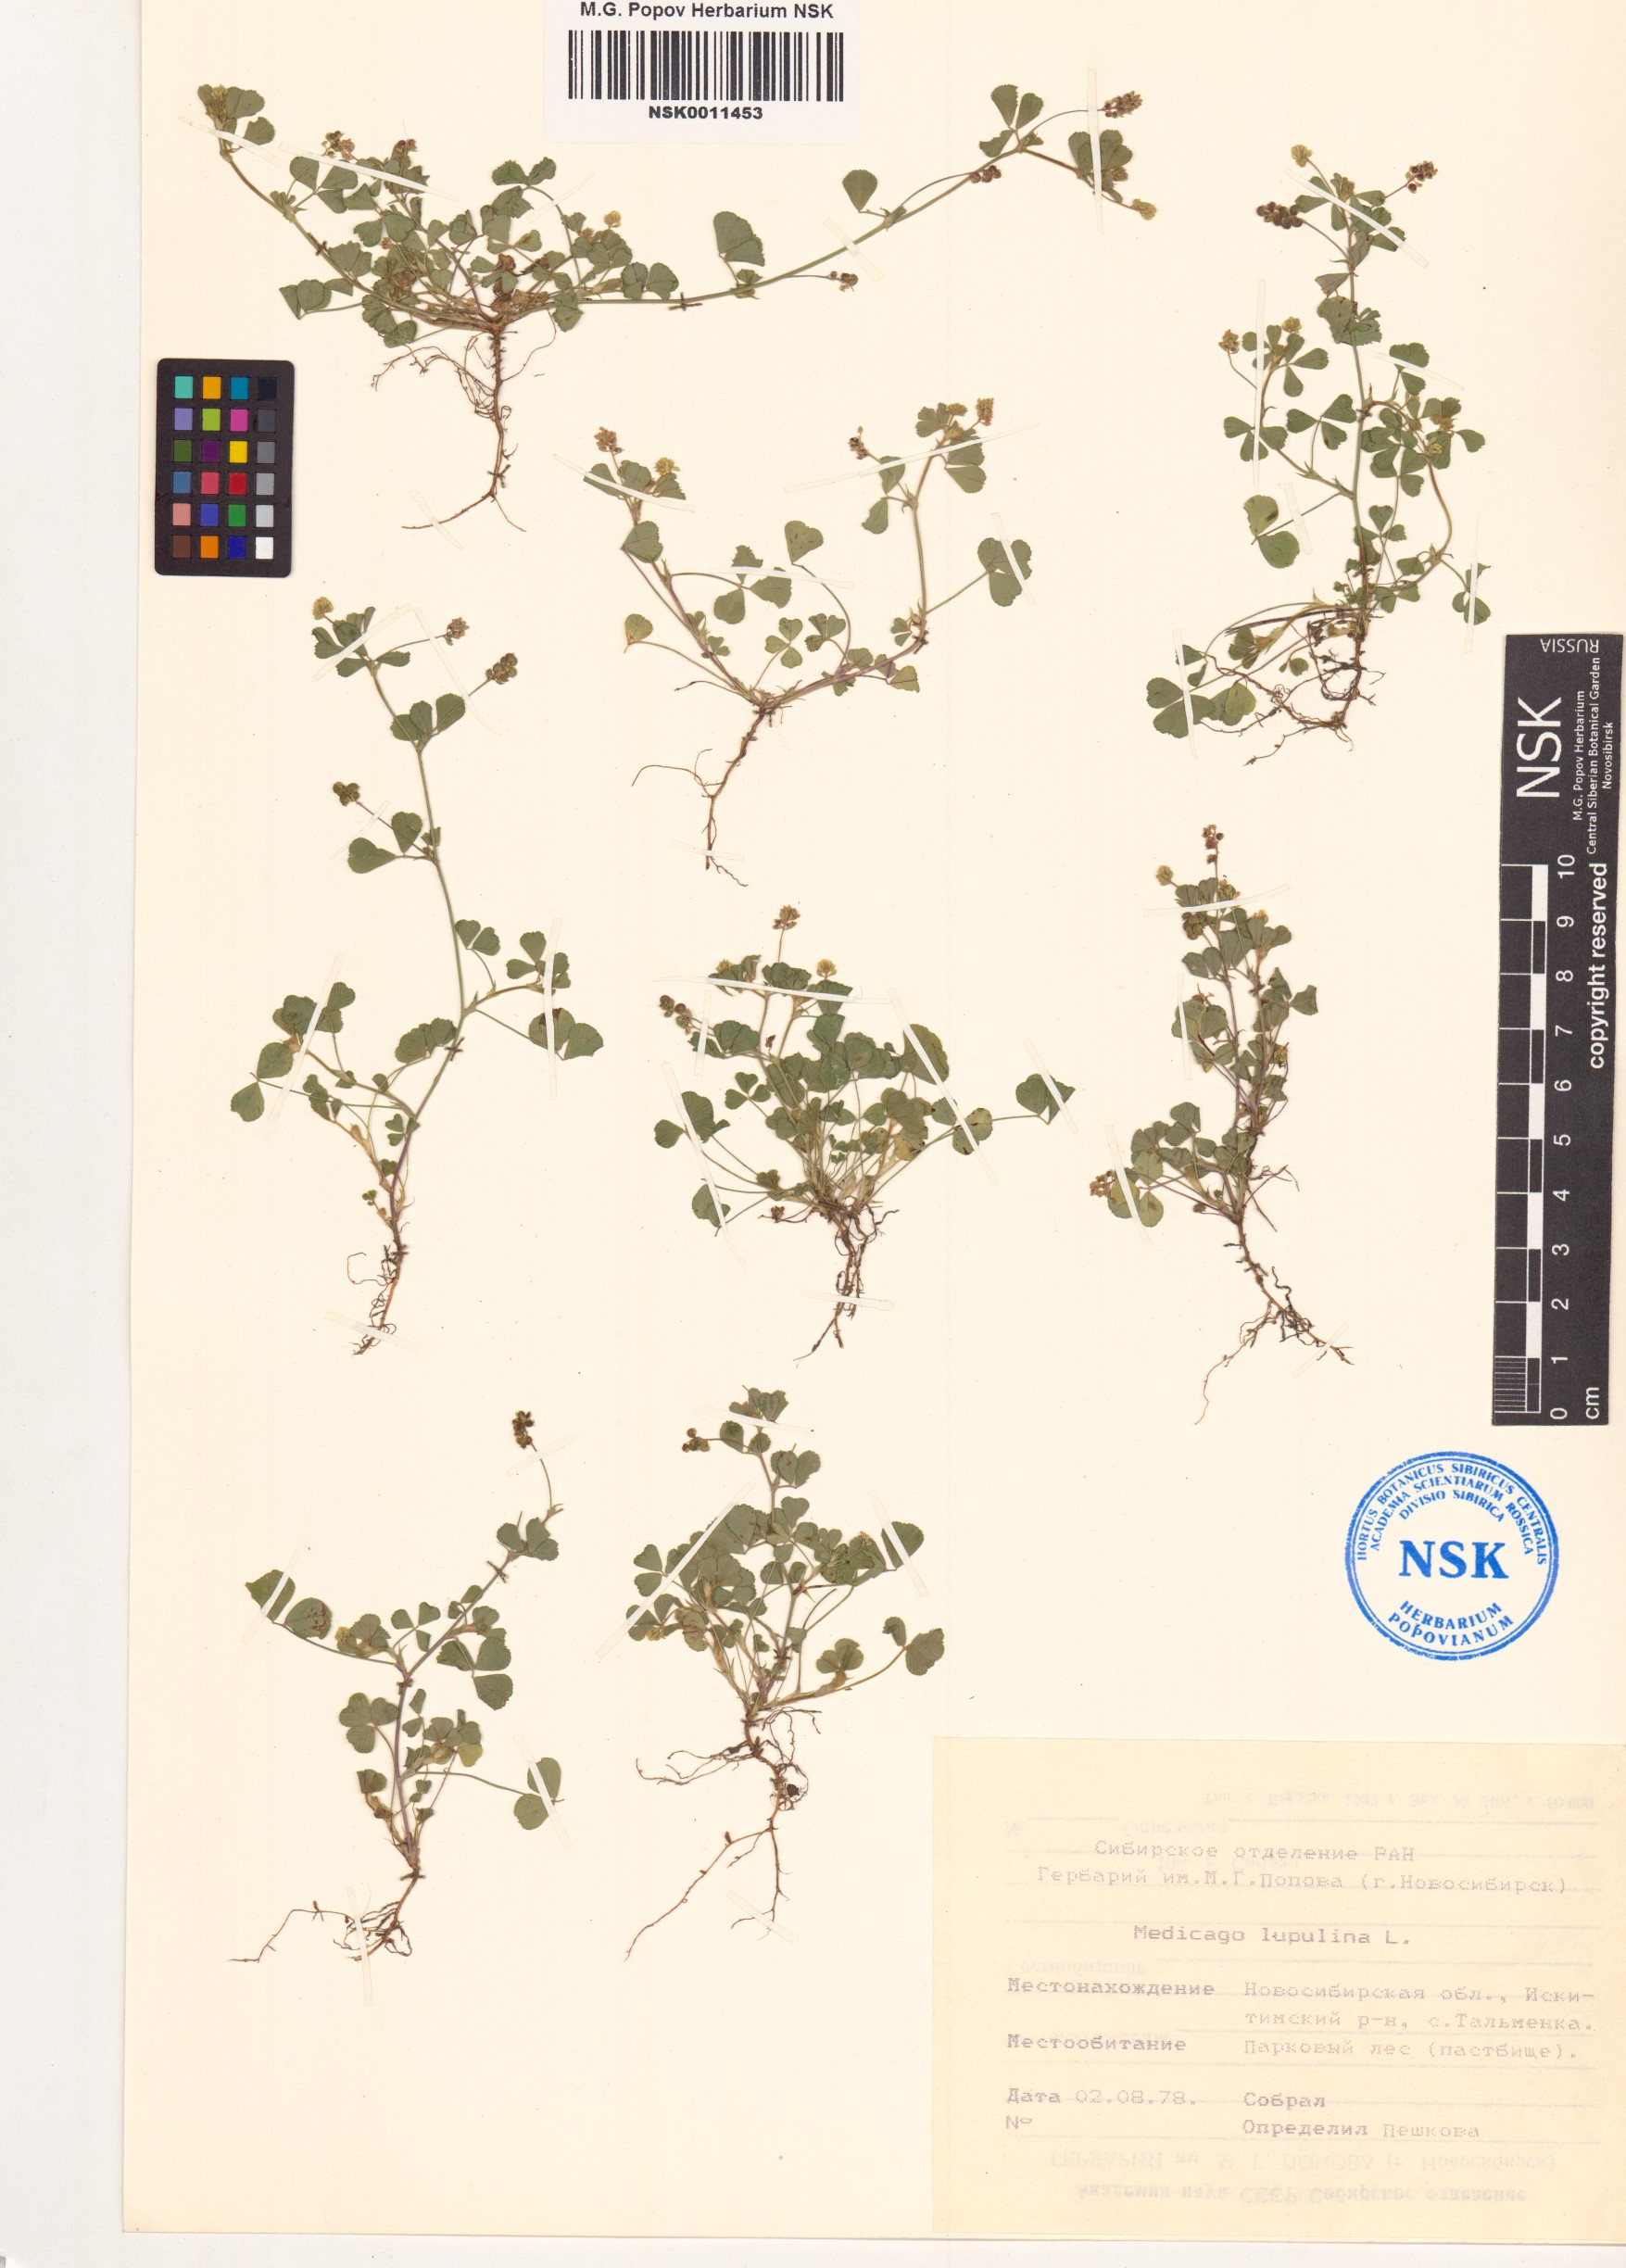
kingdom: Plantae
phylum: Tracheophyta
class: Magnoliopsida
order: Fabales
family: Fabaceae
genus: Medicago
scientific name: Medicago lupulina
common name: Black medick
